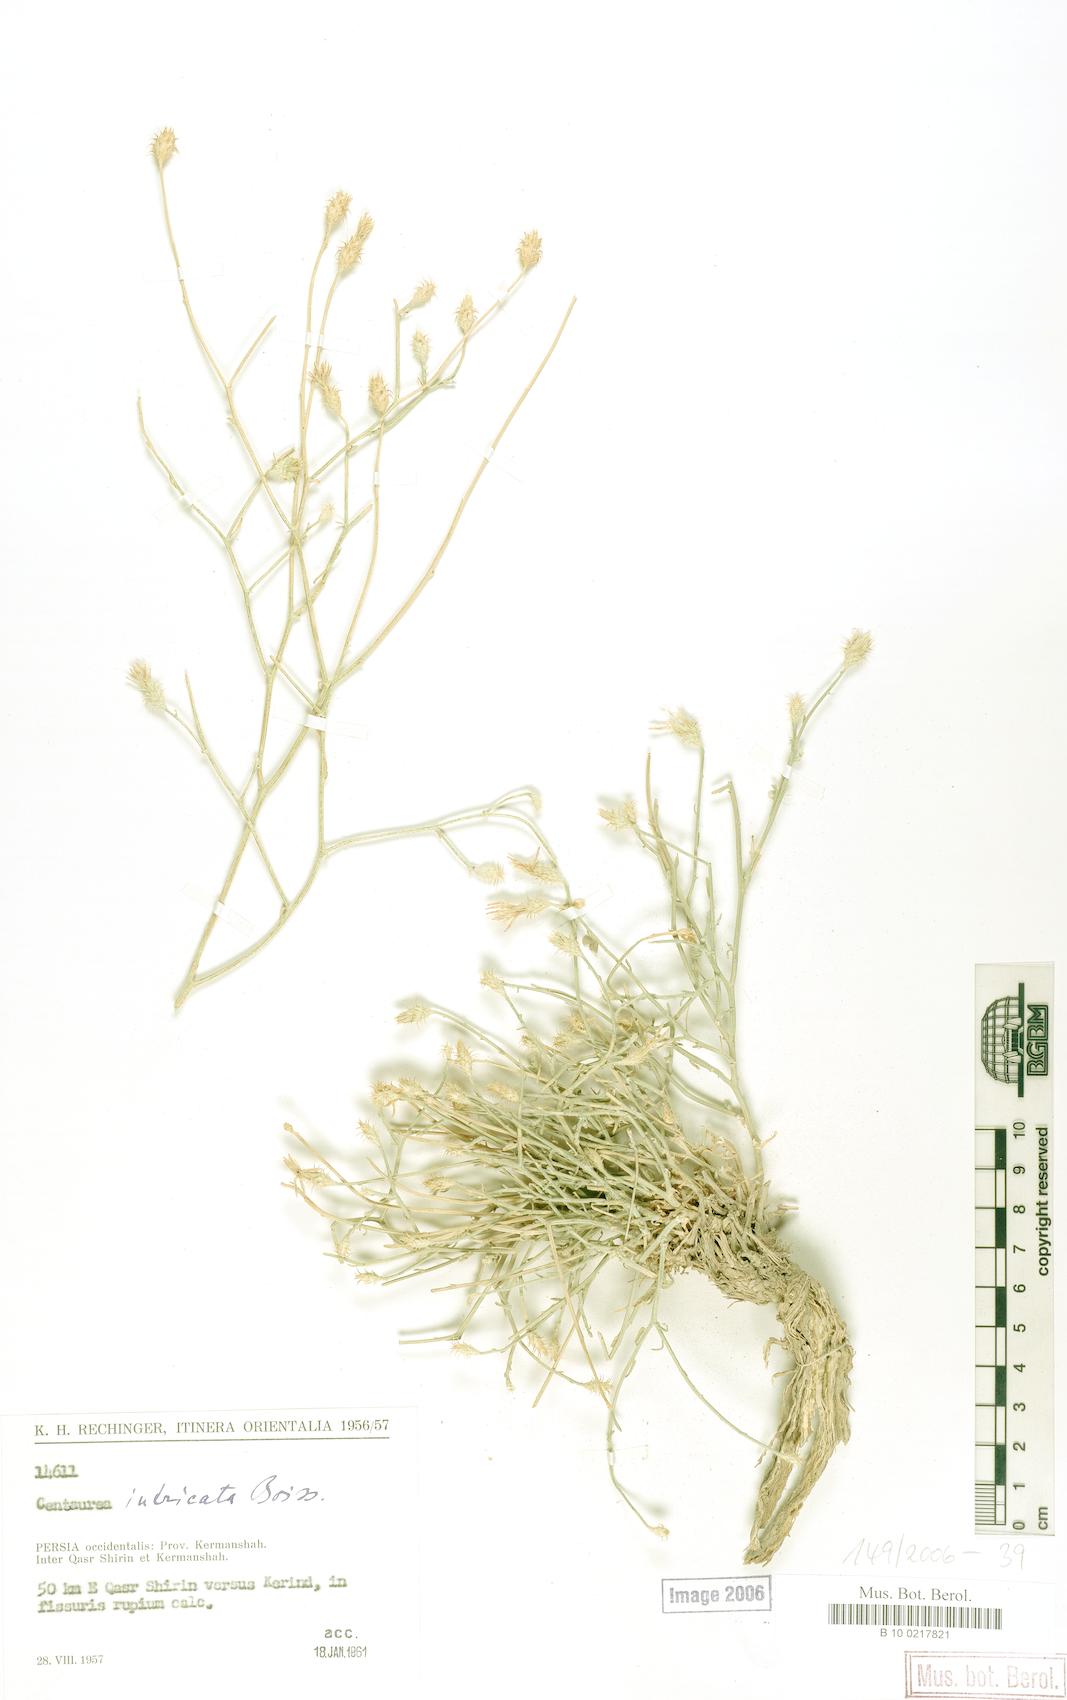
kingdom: Plantae
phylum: Tracheophyta
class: Magnoliopsida
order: Asterales
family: Asteraceae
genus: Centaurea
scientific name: Centaurea intricata
